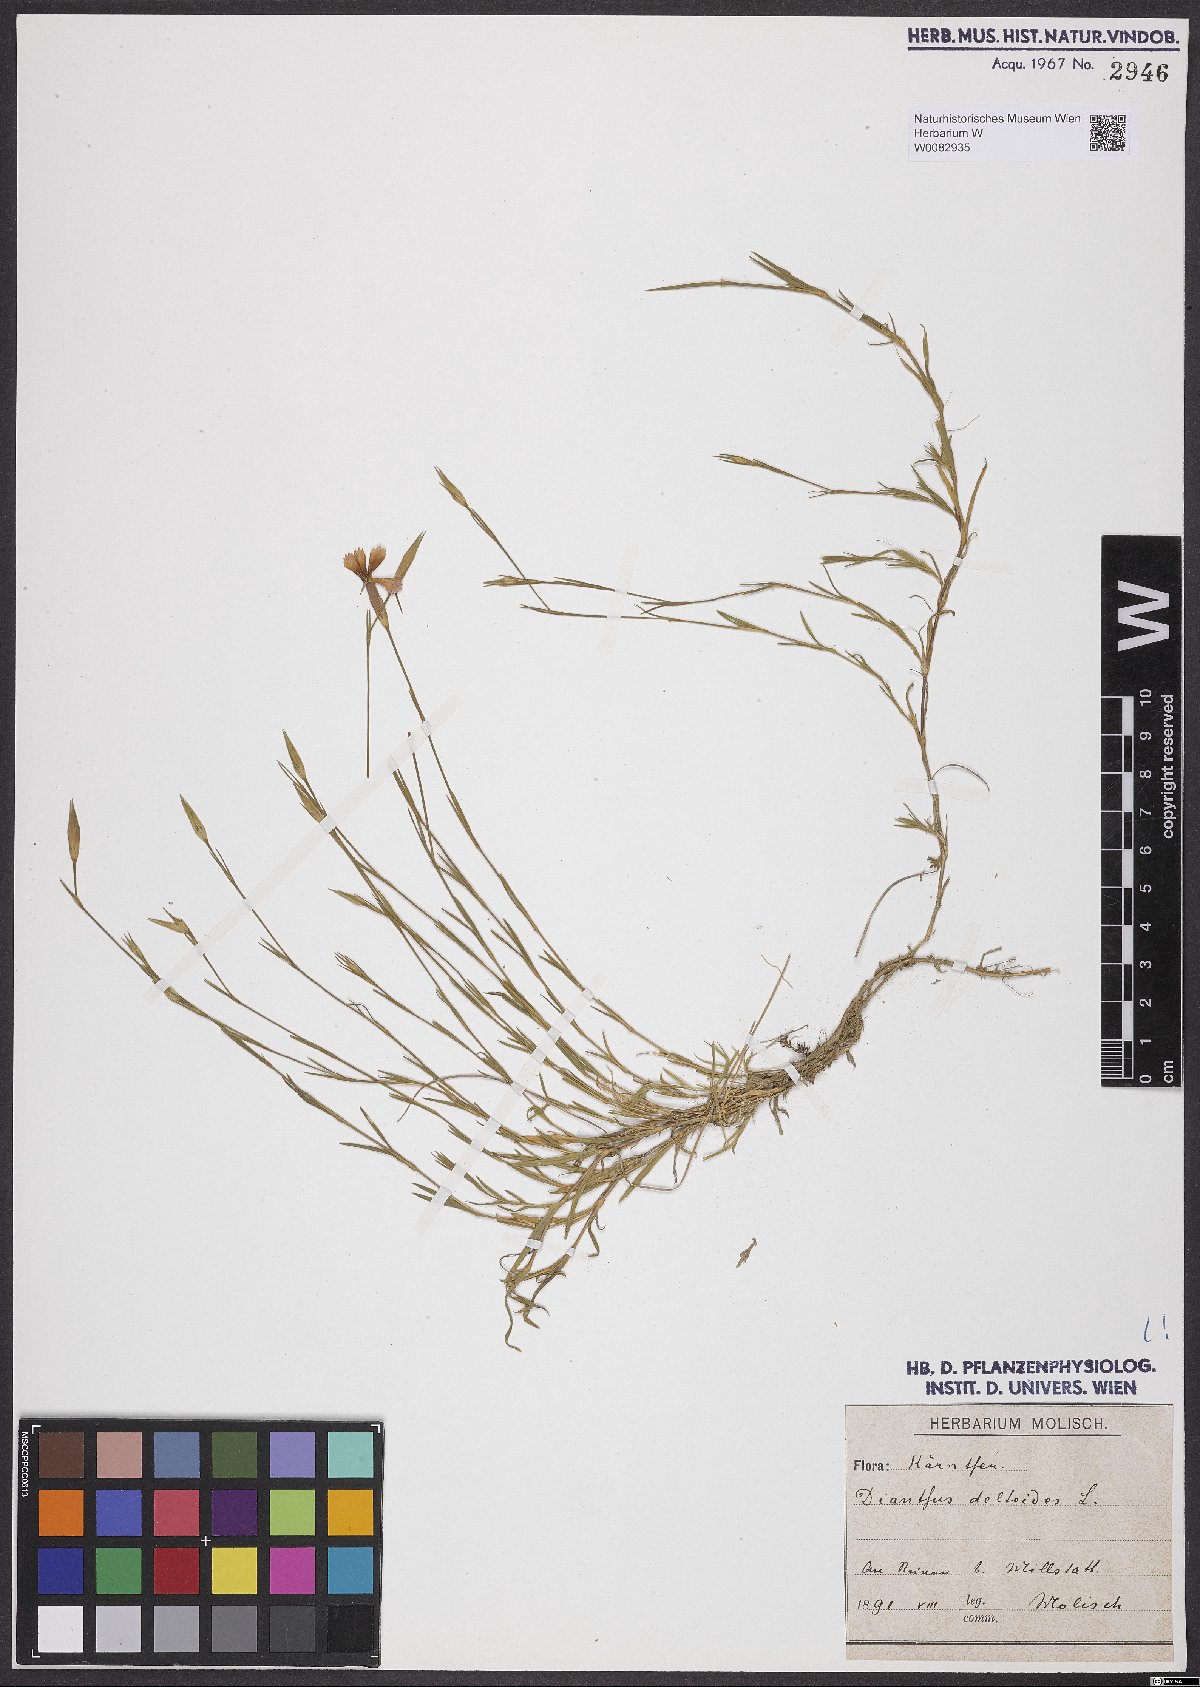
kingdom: Plantae
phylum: Tracheophyta
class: Magnoliopsida
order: Caryophyllales
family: Caryophyllaceae
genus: Dianthus
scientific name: Dianthus deltoides
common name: Maiden pink
